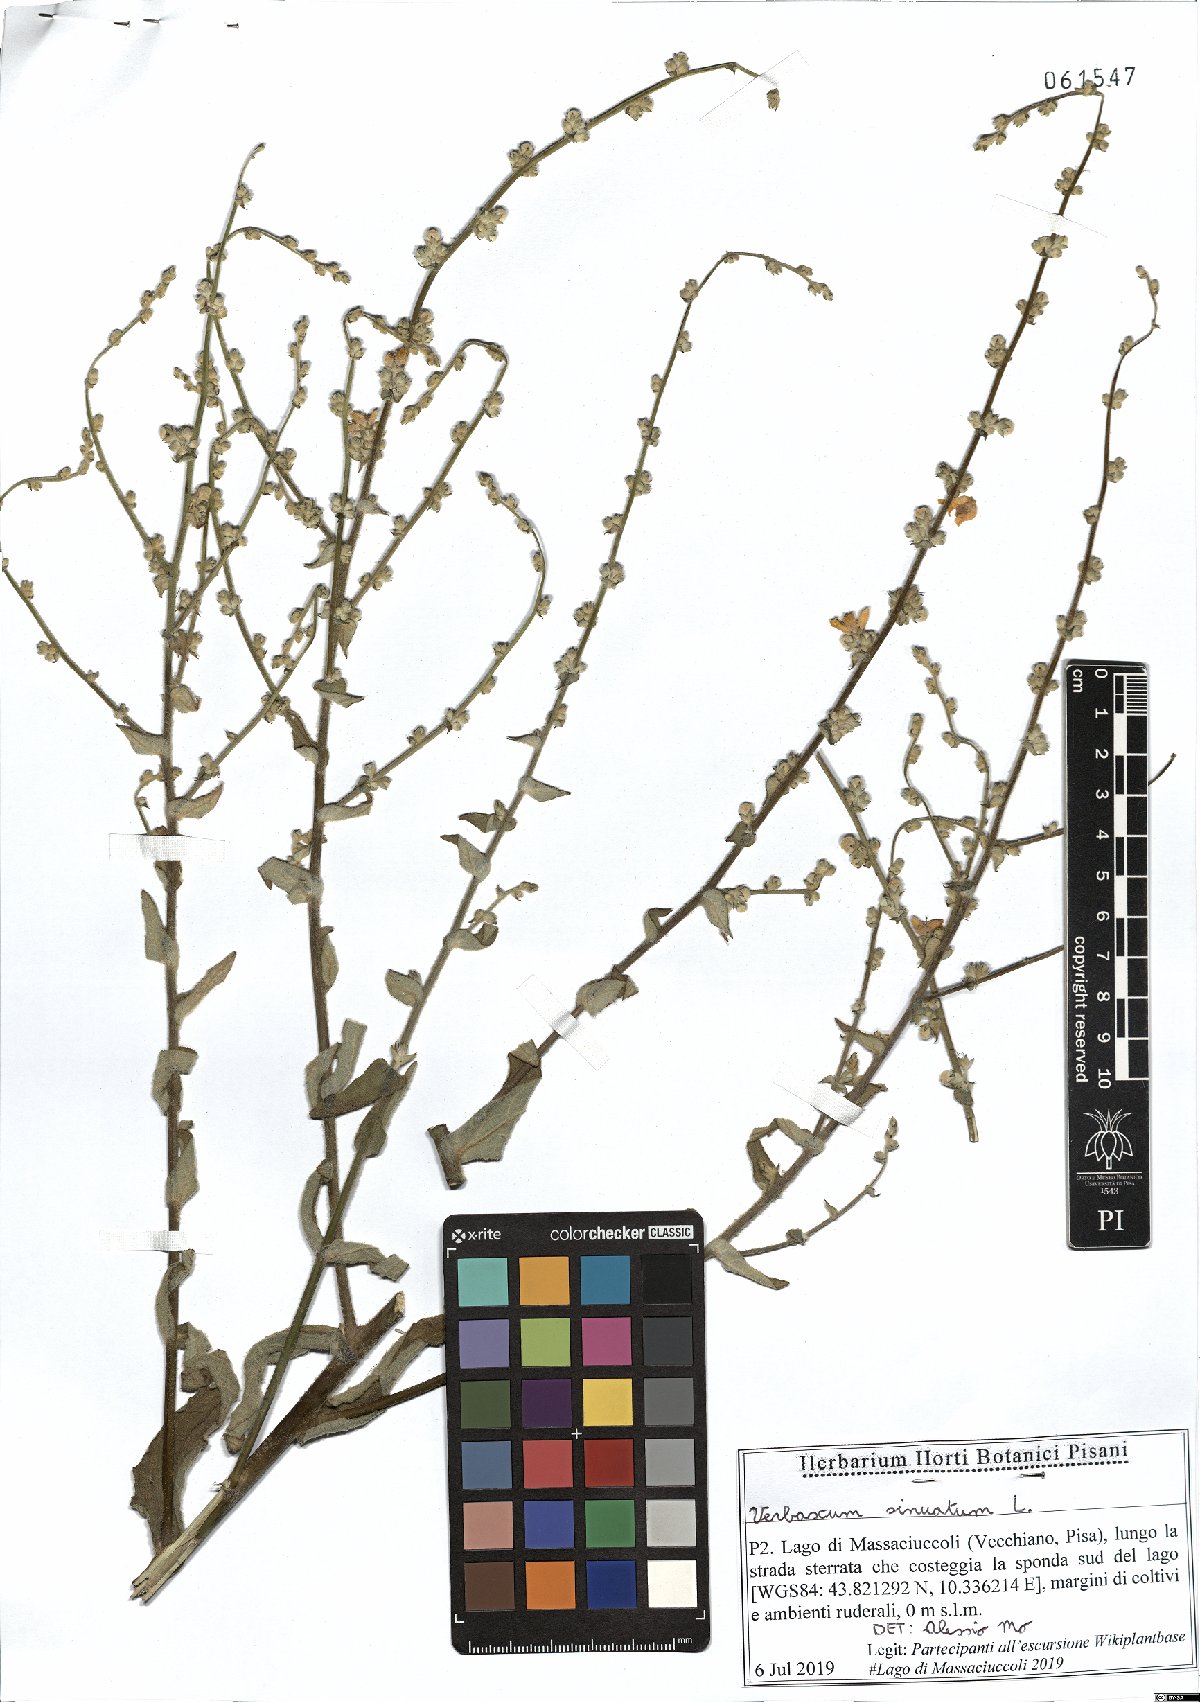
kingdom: Plantae
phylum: Tracheophyta
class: Magnoliopsida
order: Lamiales
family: Scrophulariaceae
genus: Verbascum
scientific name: Verbascum sinuatum
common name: Wavyleaf mullein
